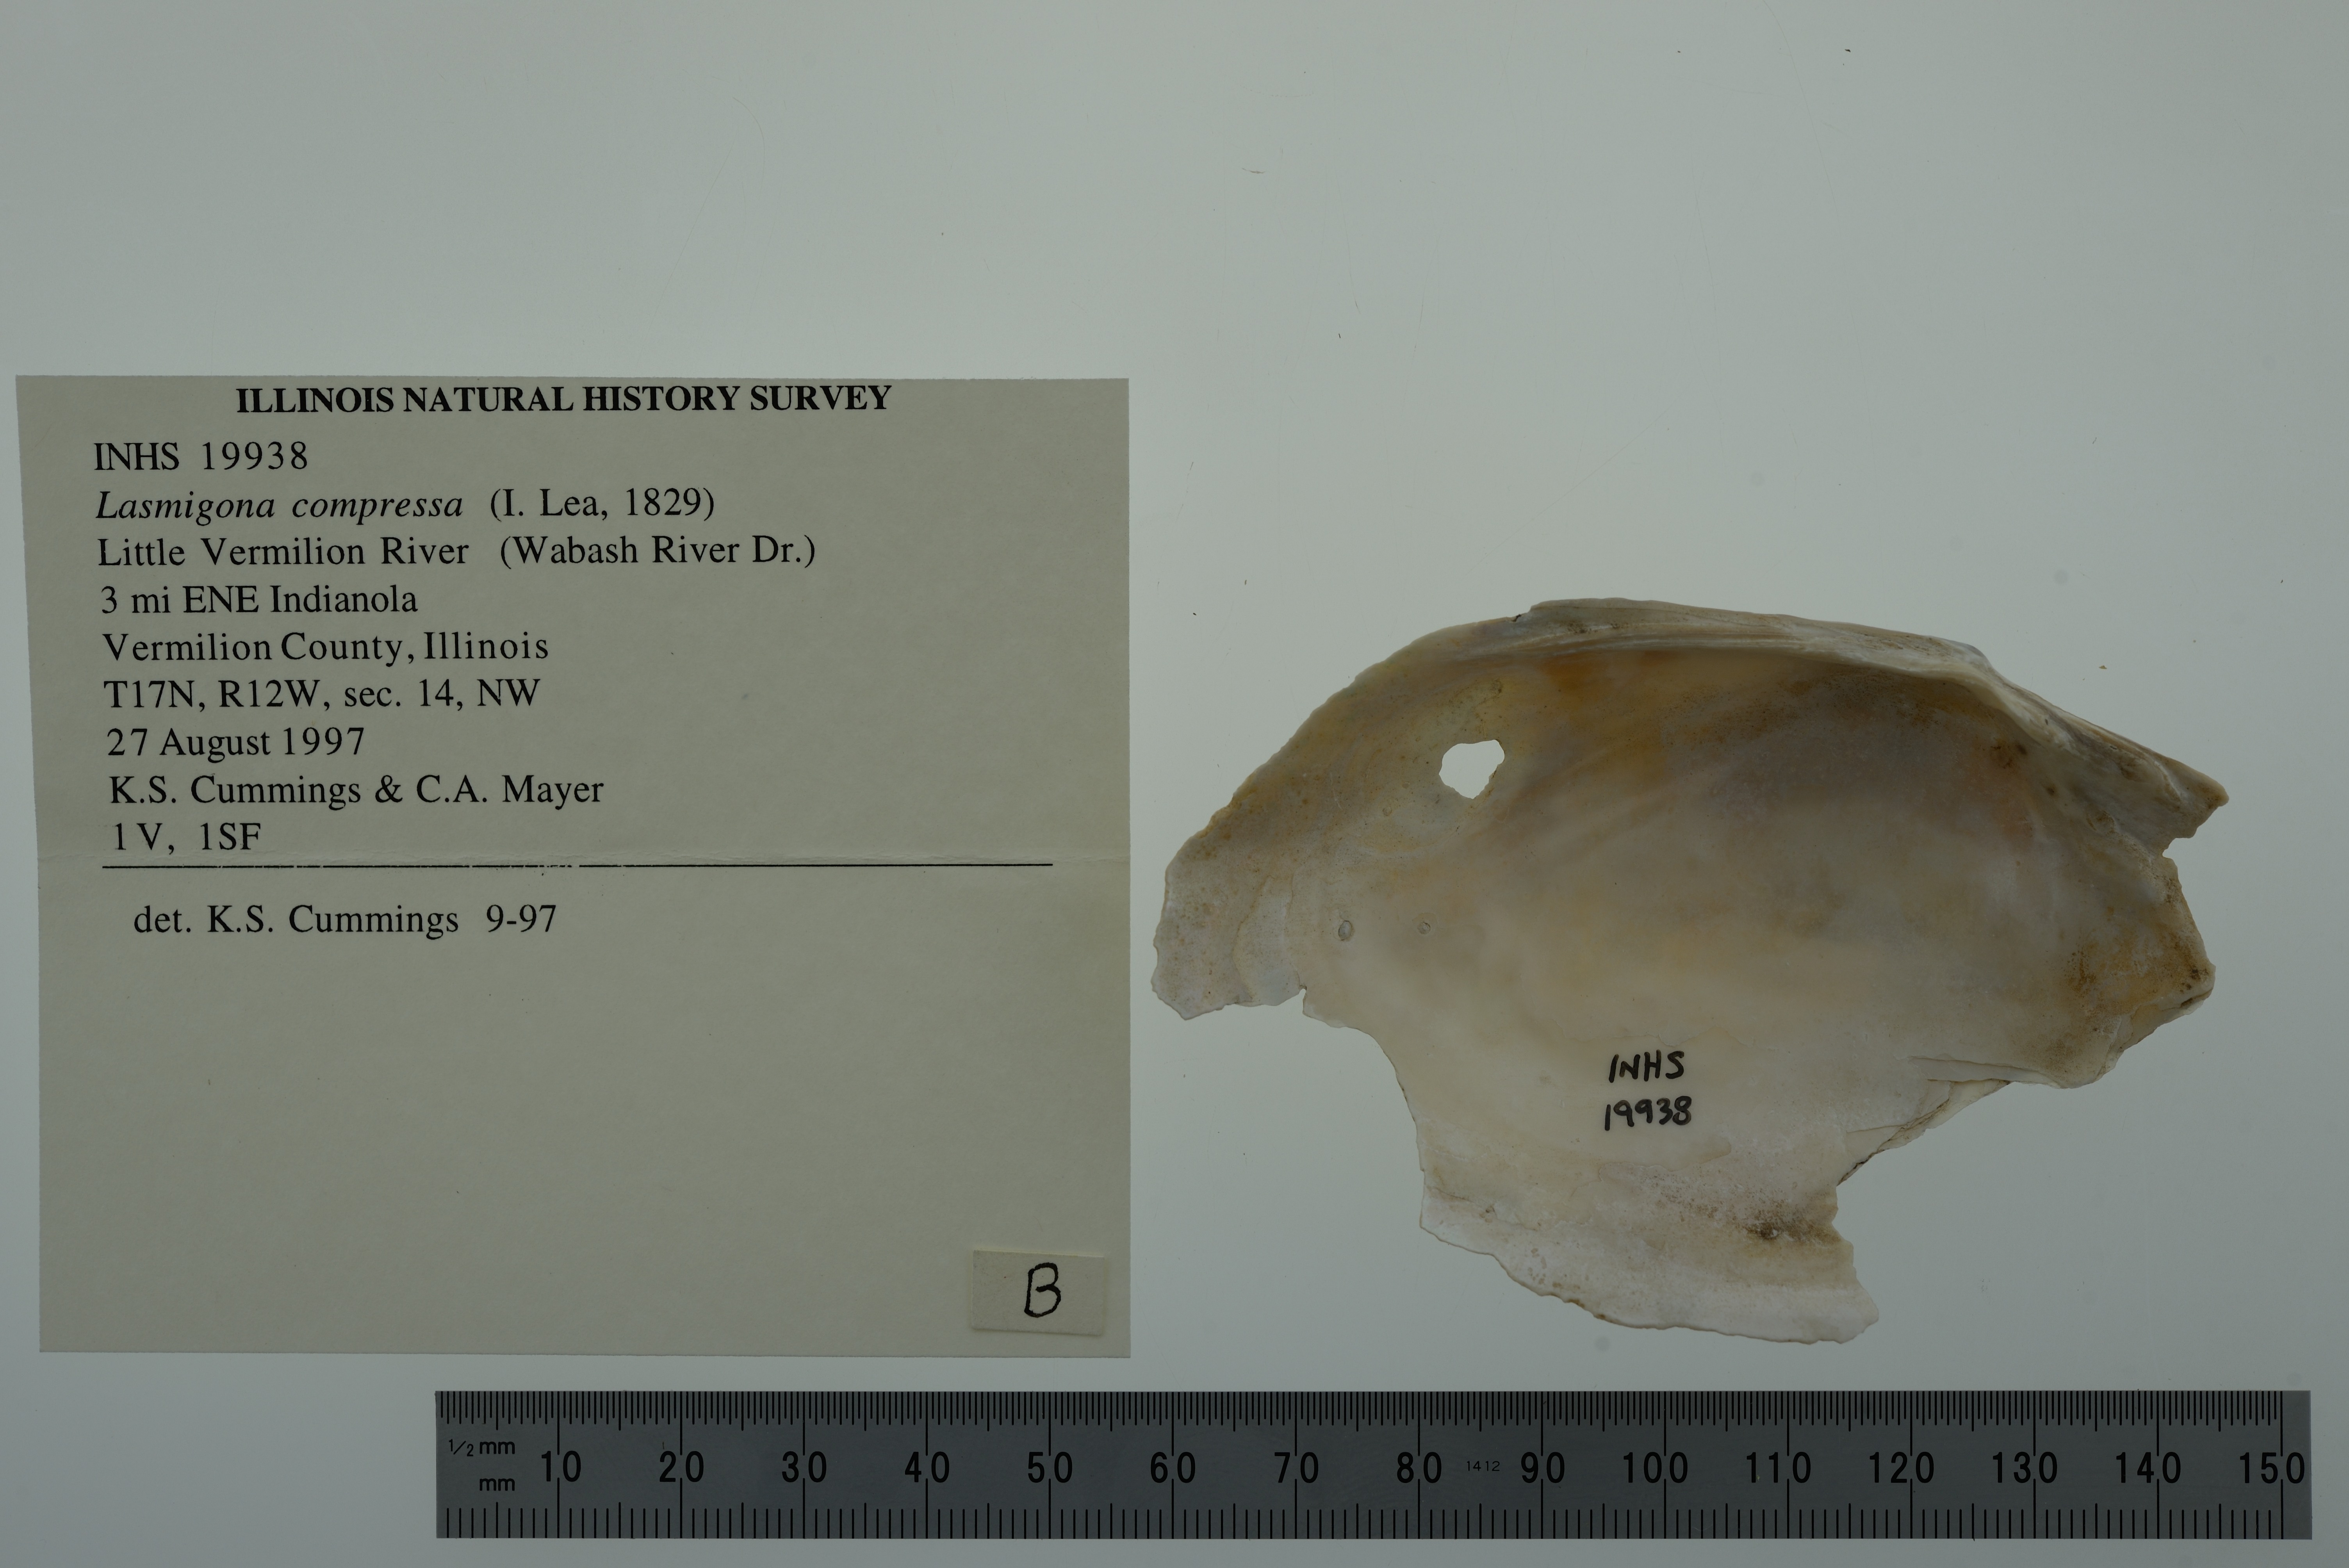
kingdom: Animalia
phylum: Mollusca
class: Bivalvia
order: Unionida
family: Unionidae
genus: Lasmigona
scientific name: Lasmigona compressa
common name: Creek heelsplitter
